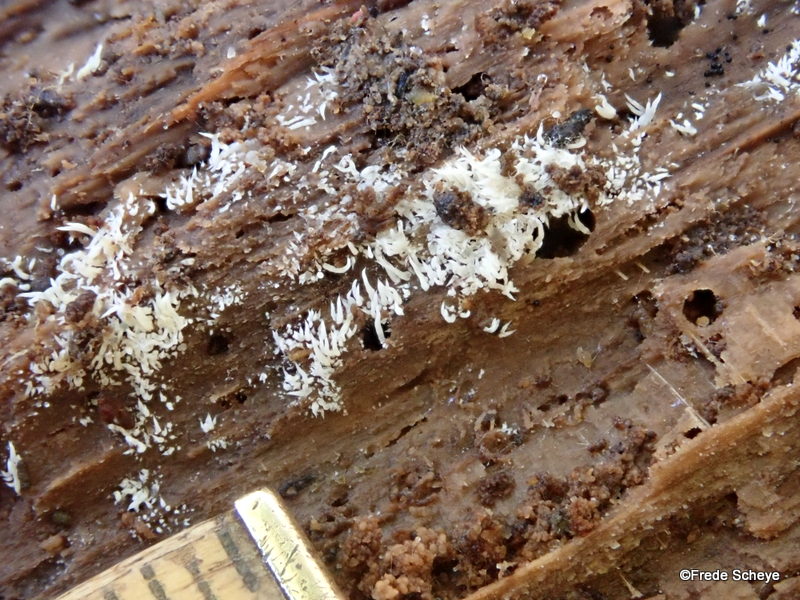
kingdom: Fungi
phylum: Basidiomycota
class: Agaricomycetes
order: Agaricales
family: Clavariaceae
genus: Mucronella
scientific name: Mucronella calva
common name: hvid hængepig
